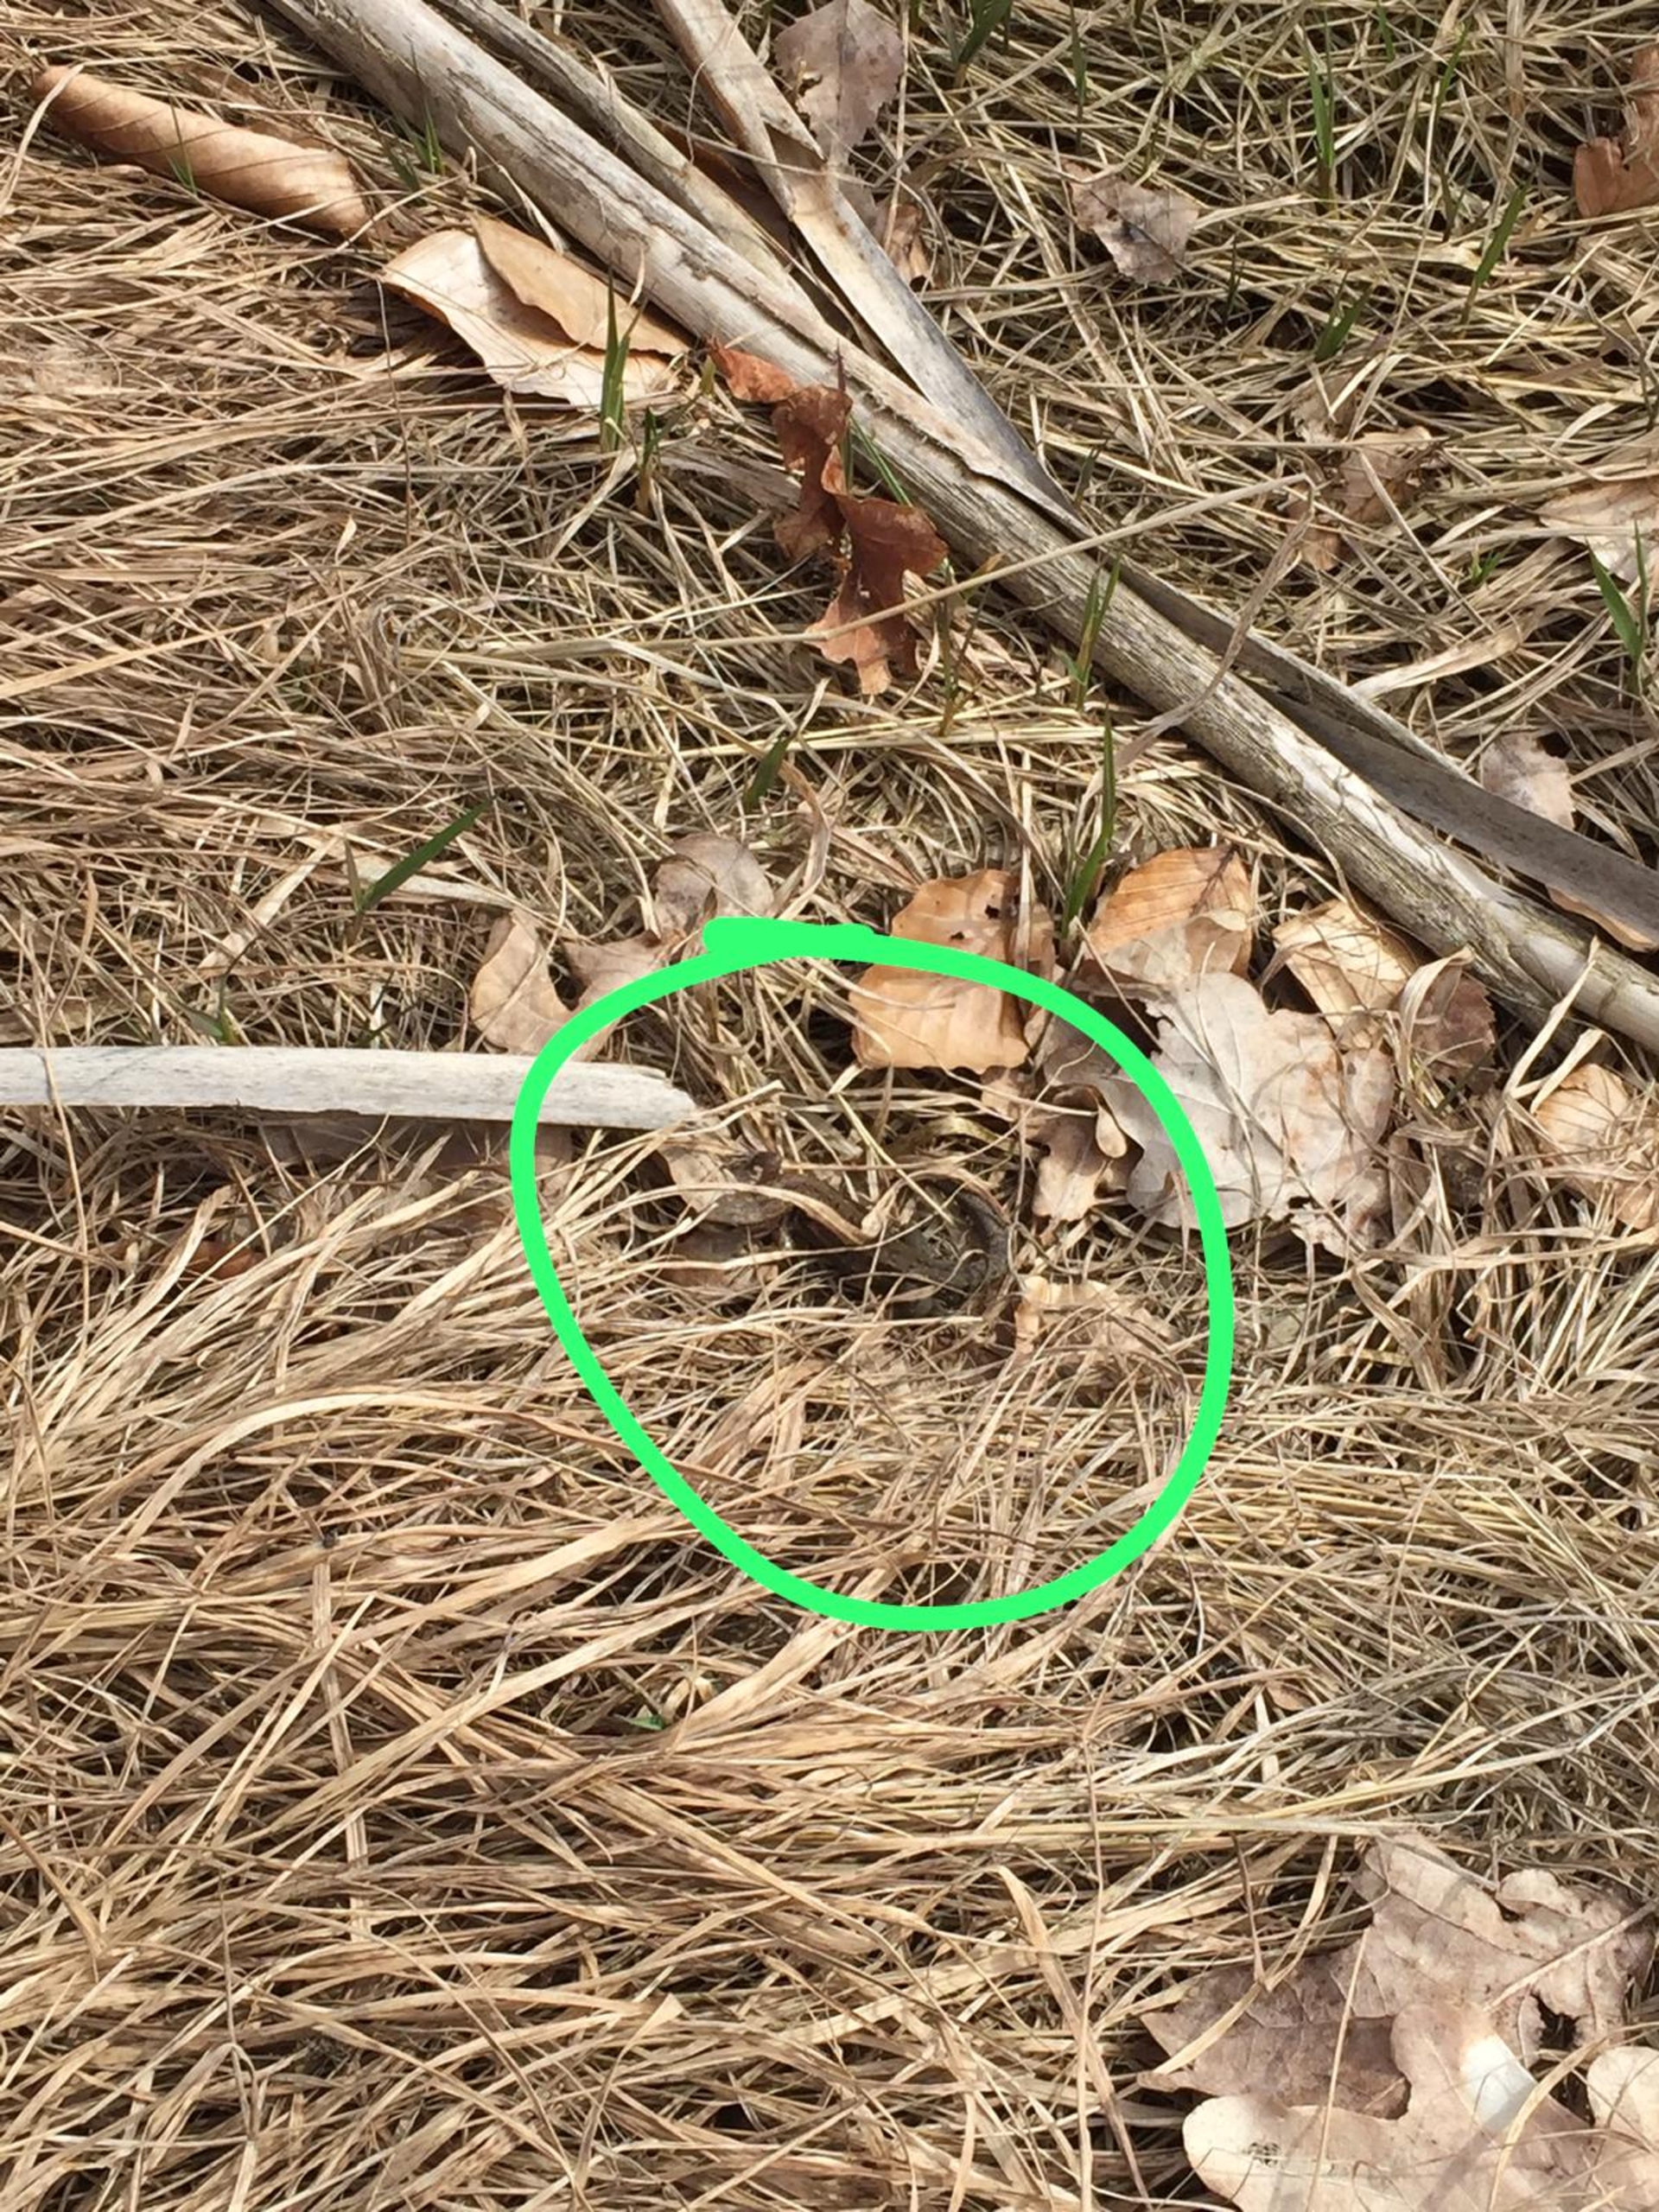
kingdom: Animalia
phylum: Chordata
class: Squamata
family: Lacertidae
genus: Zootoca
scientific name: Zootoca vivipara
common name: Skovfirben
